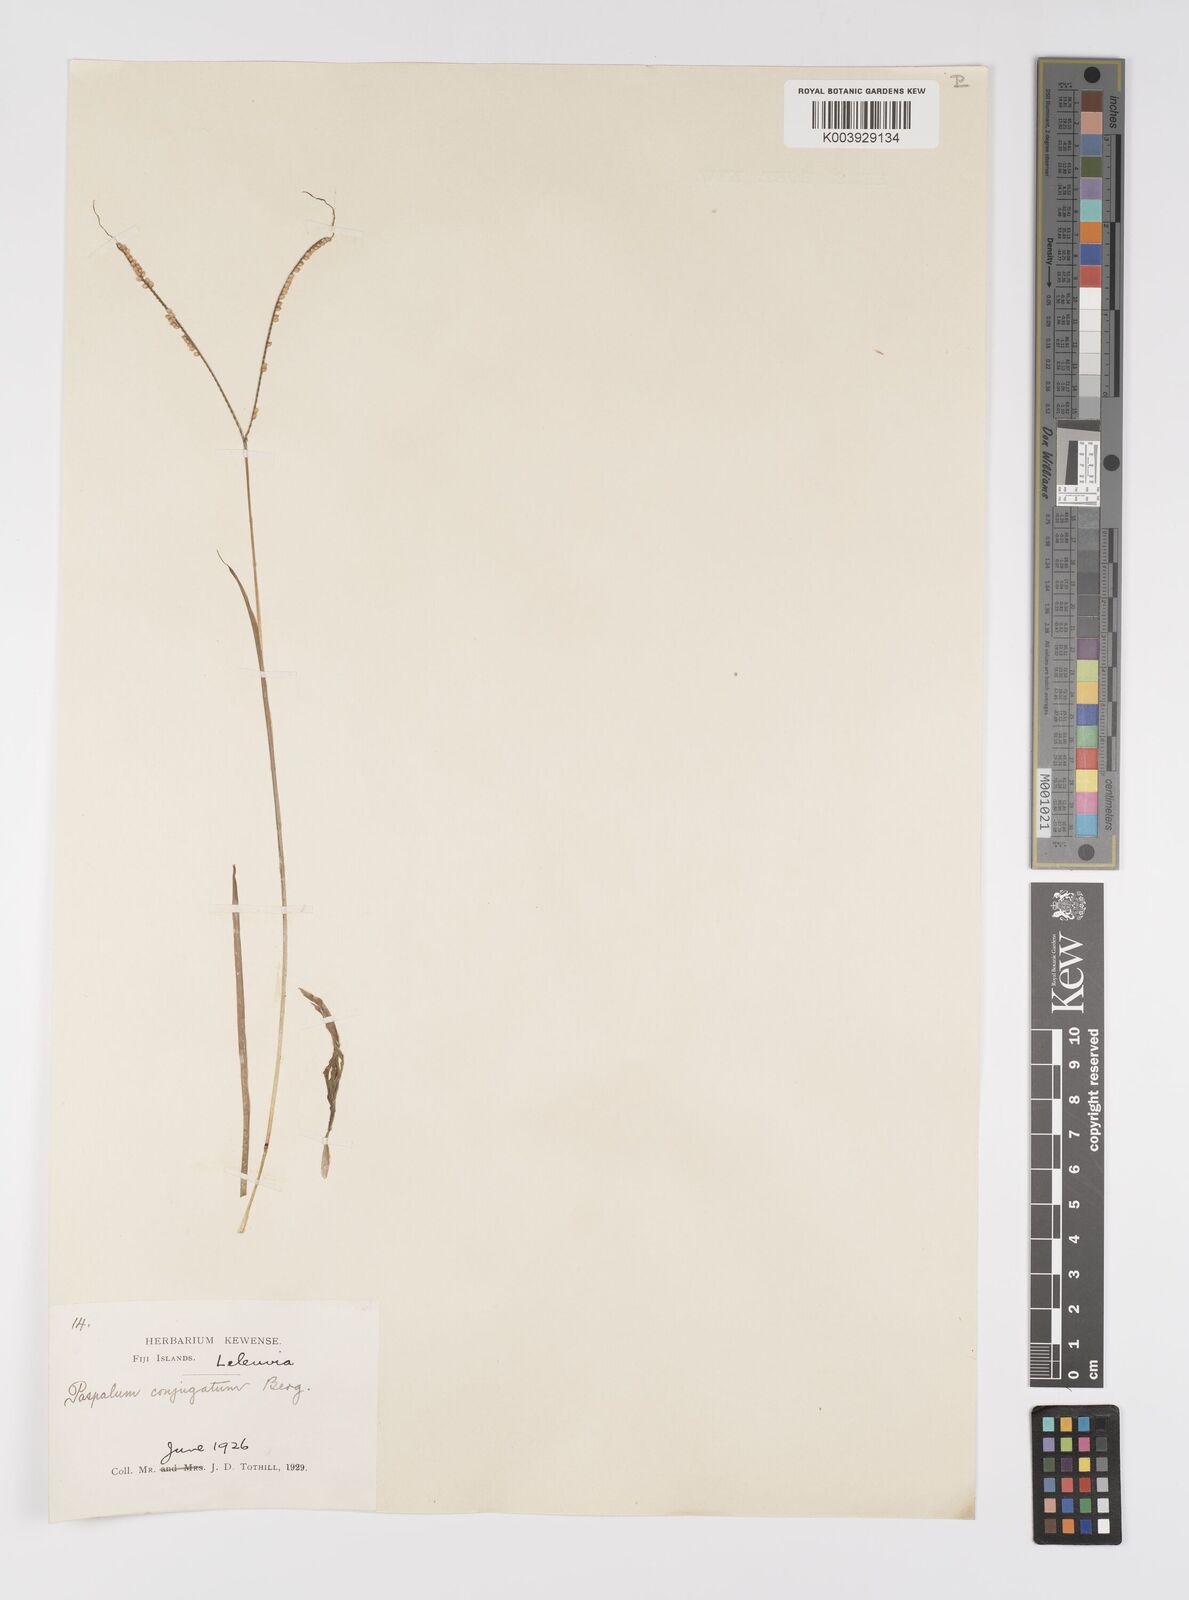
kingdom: Plantae
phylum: Tracheophyta
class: Liliopsida
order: Poales
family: Poaceae
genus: Paspalum
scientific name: Paspalum conjugatum
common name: Hilograss
